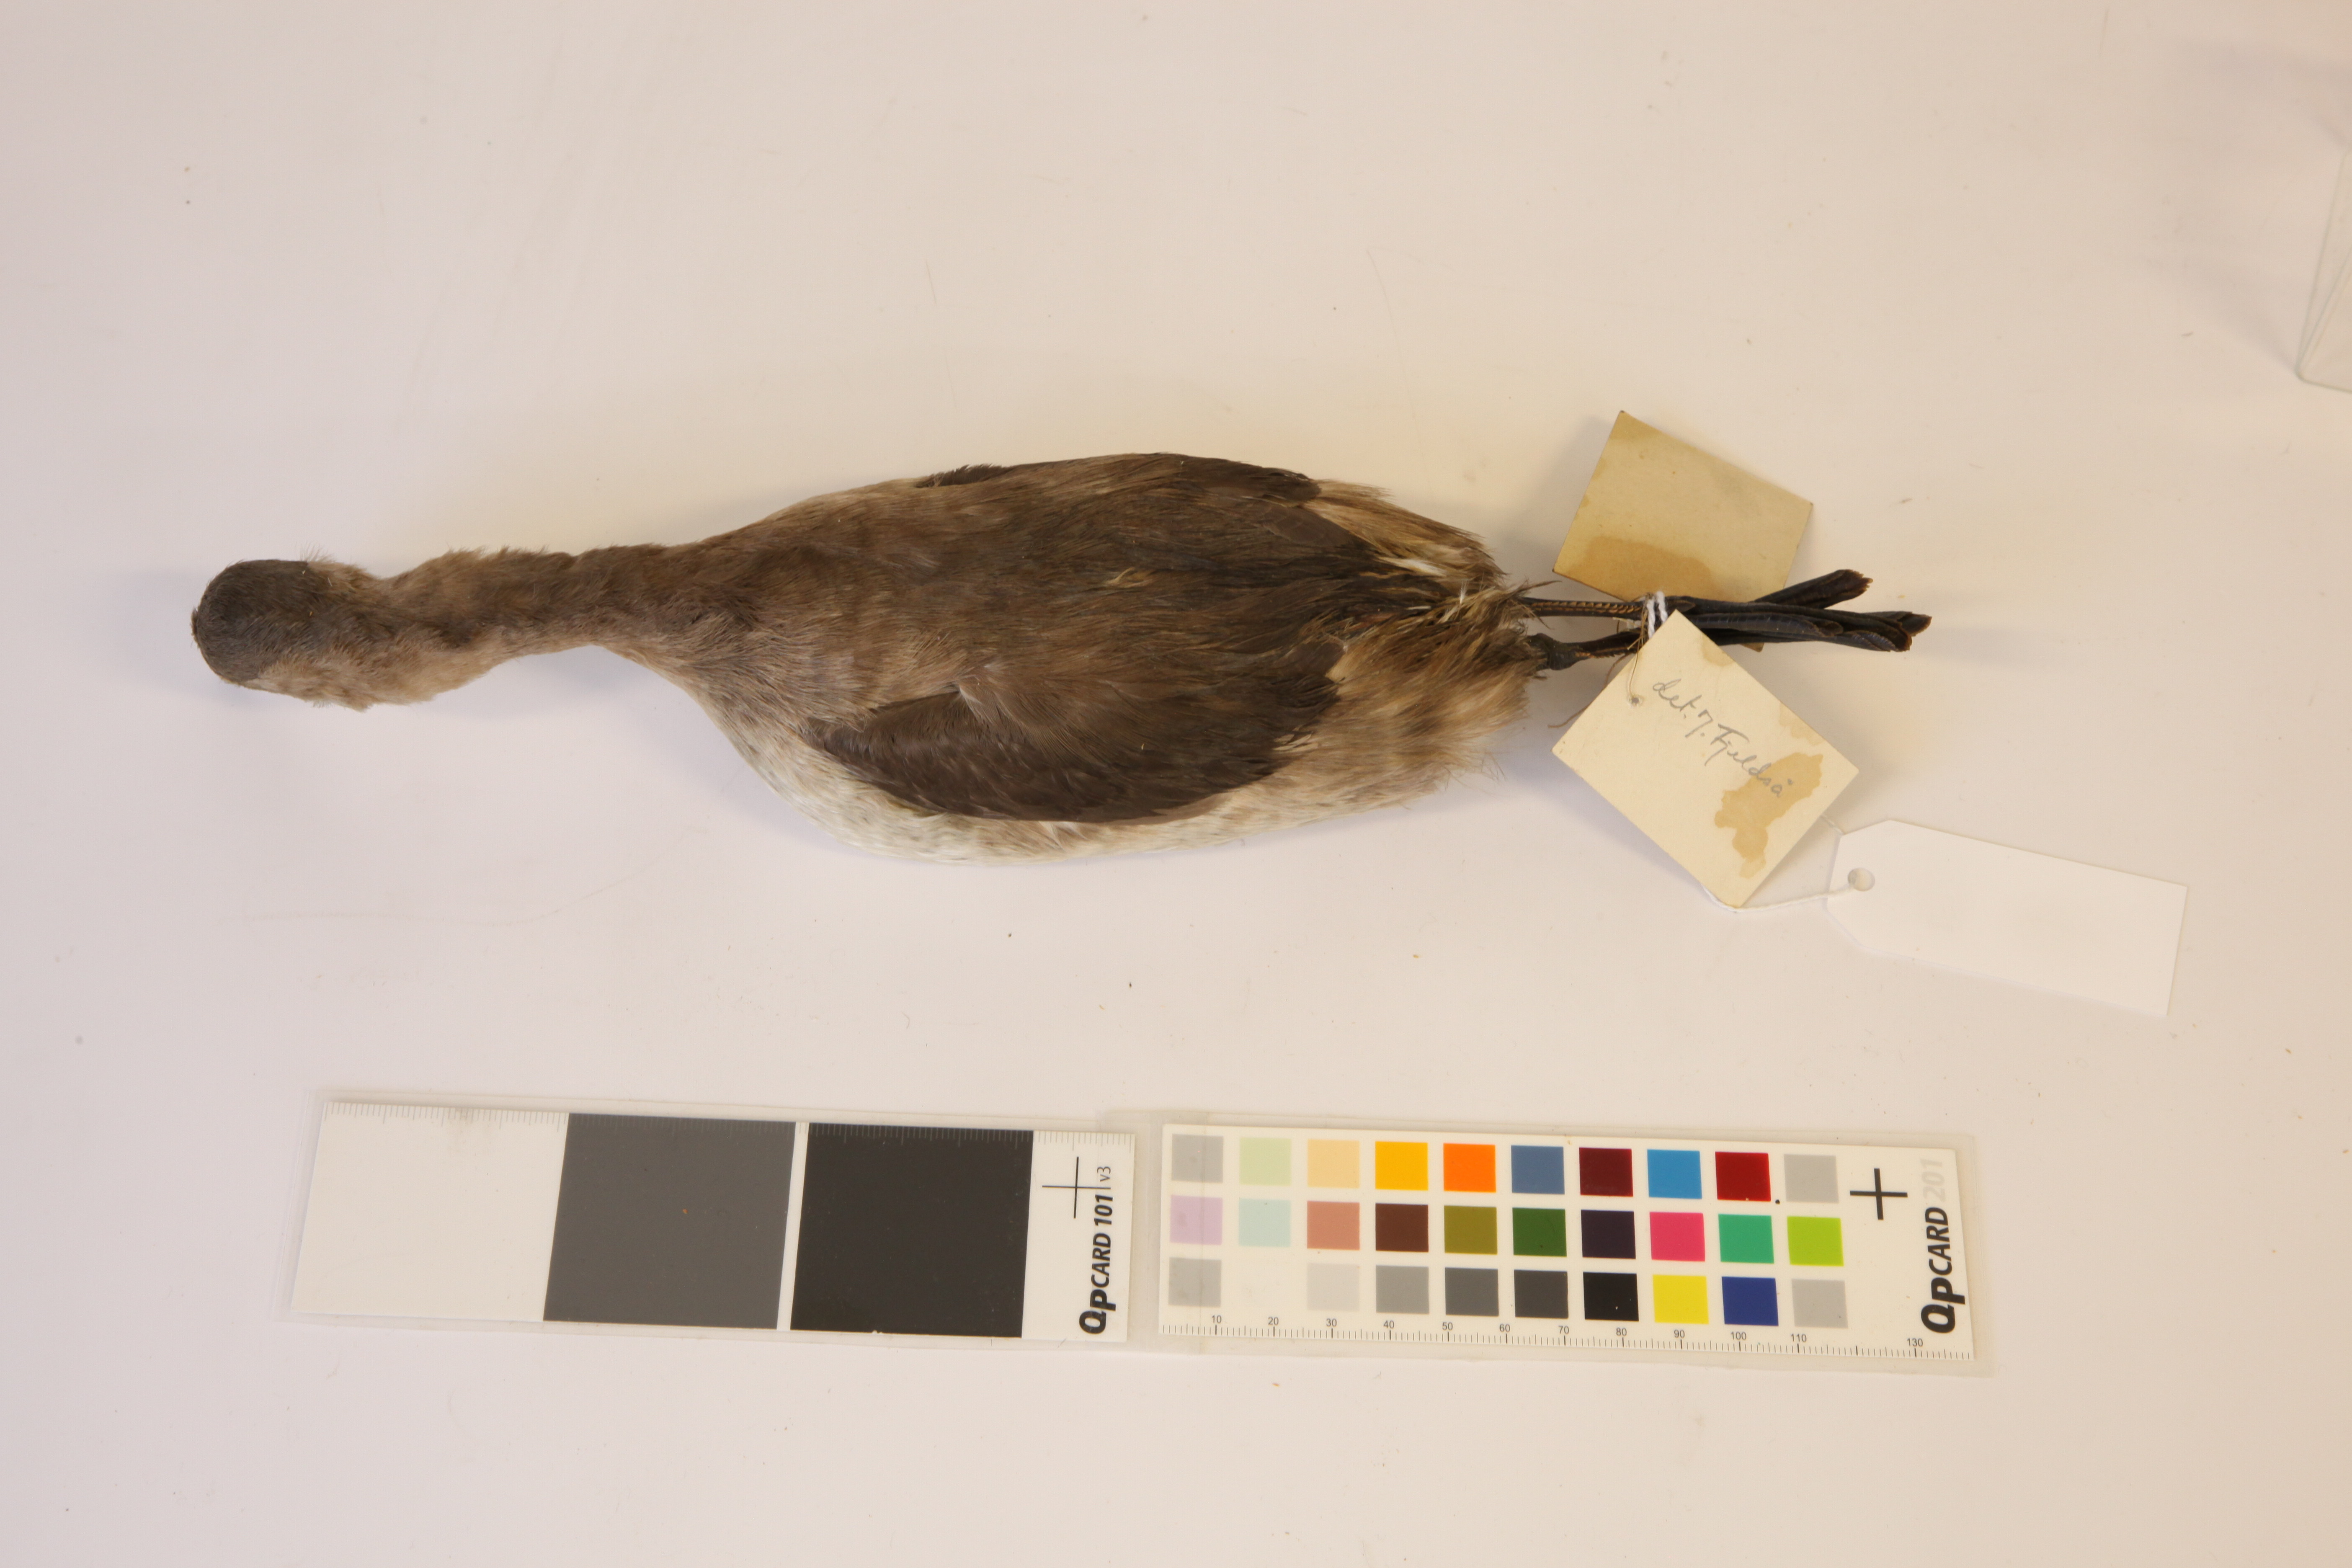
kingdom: Animalia
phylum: Chordata
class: Aves
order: Podicipediformes
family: Podicipedidae
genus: Tachybaptus
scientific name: Tachybaptus ruficollis
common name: Little grebe
